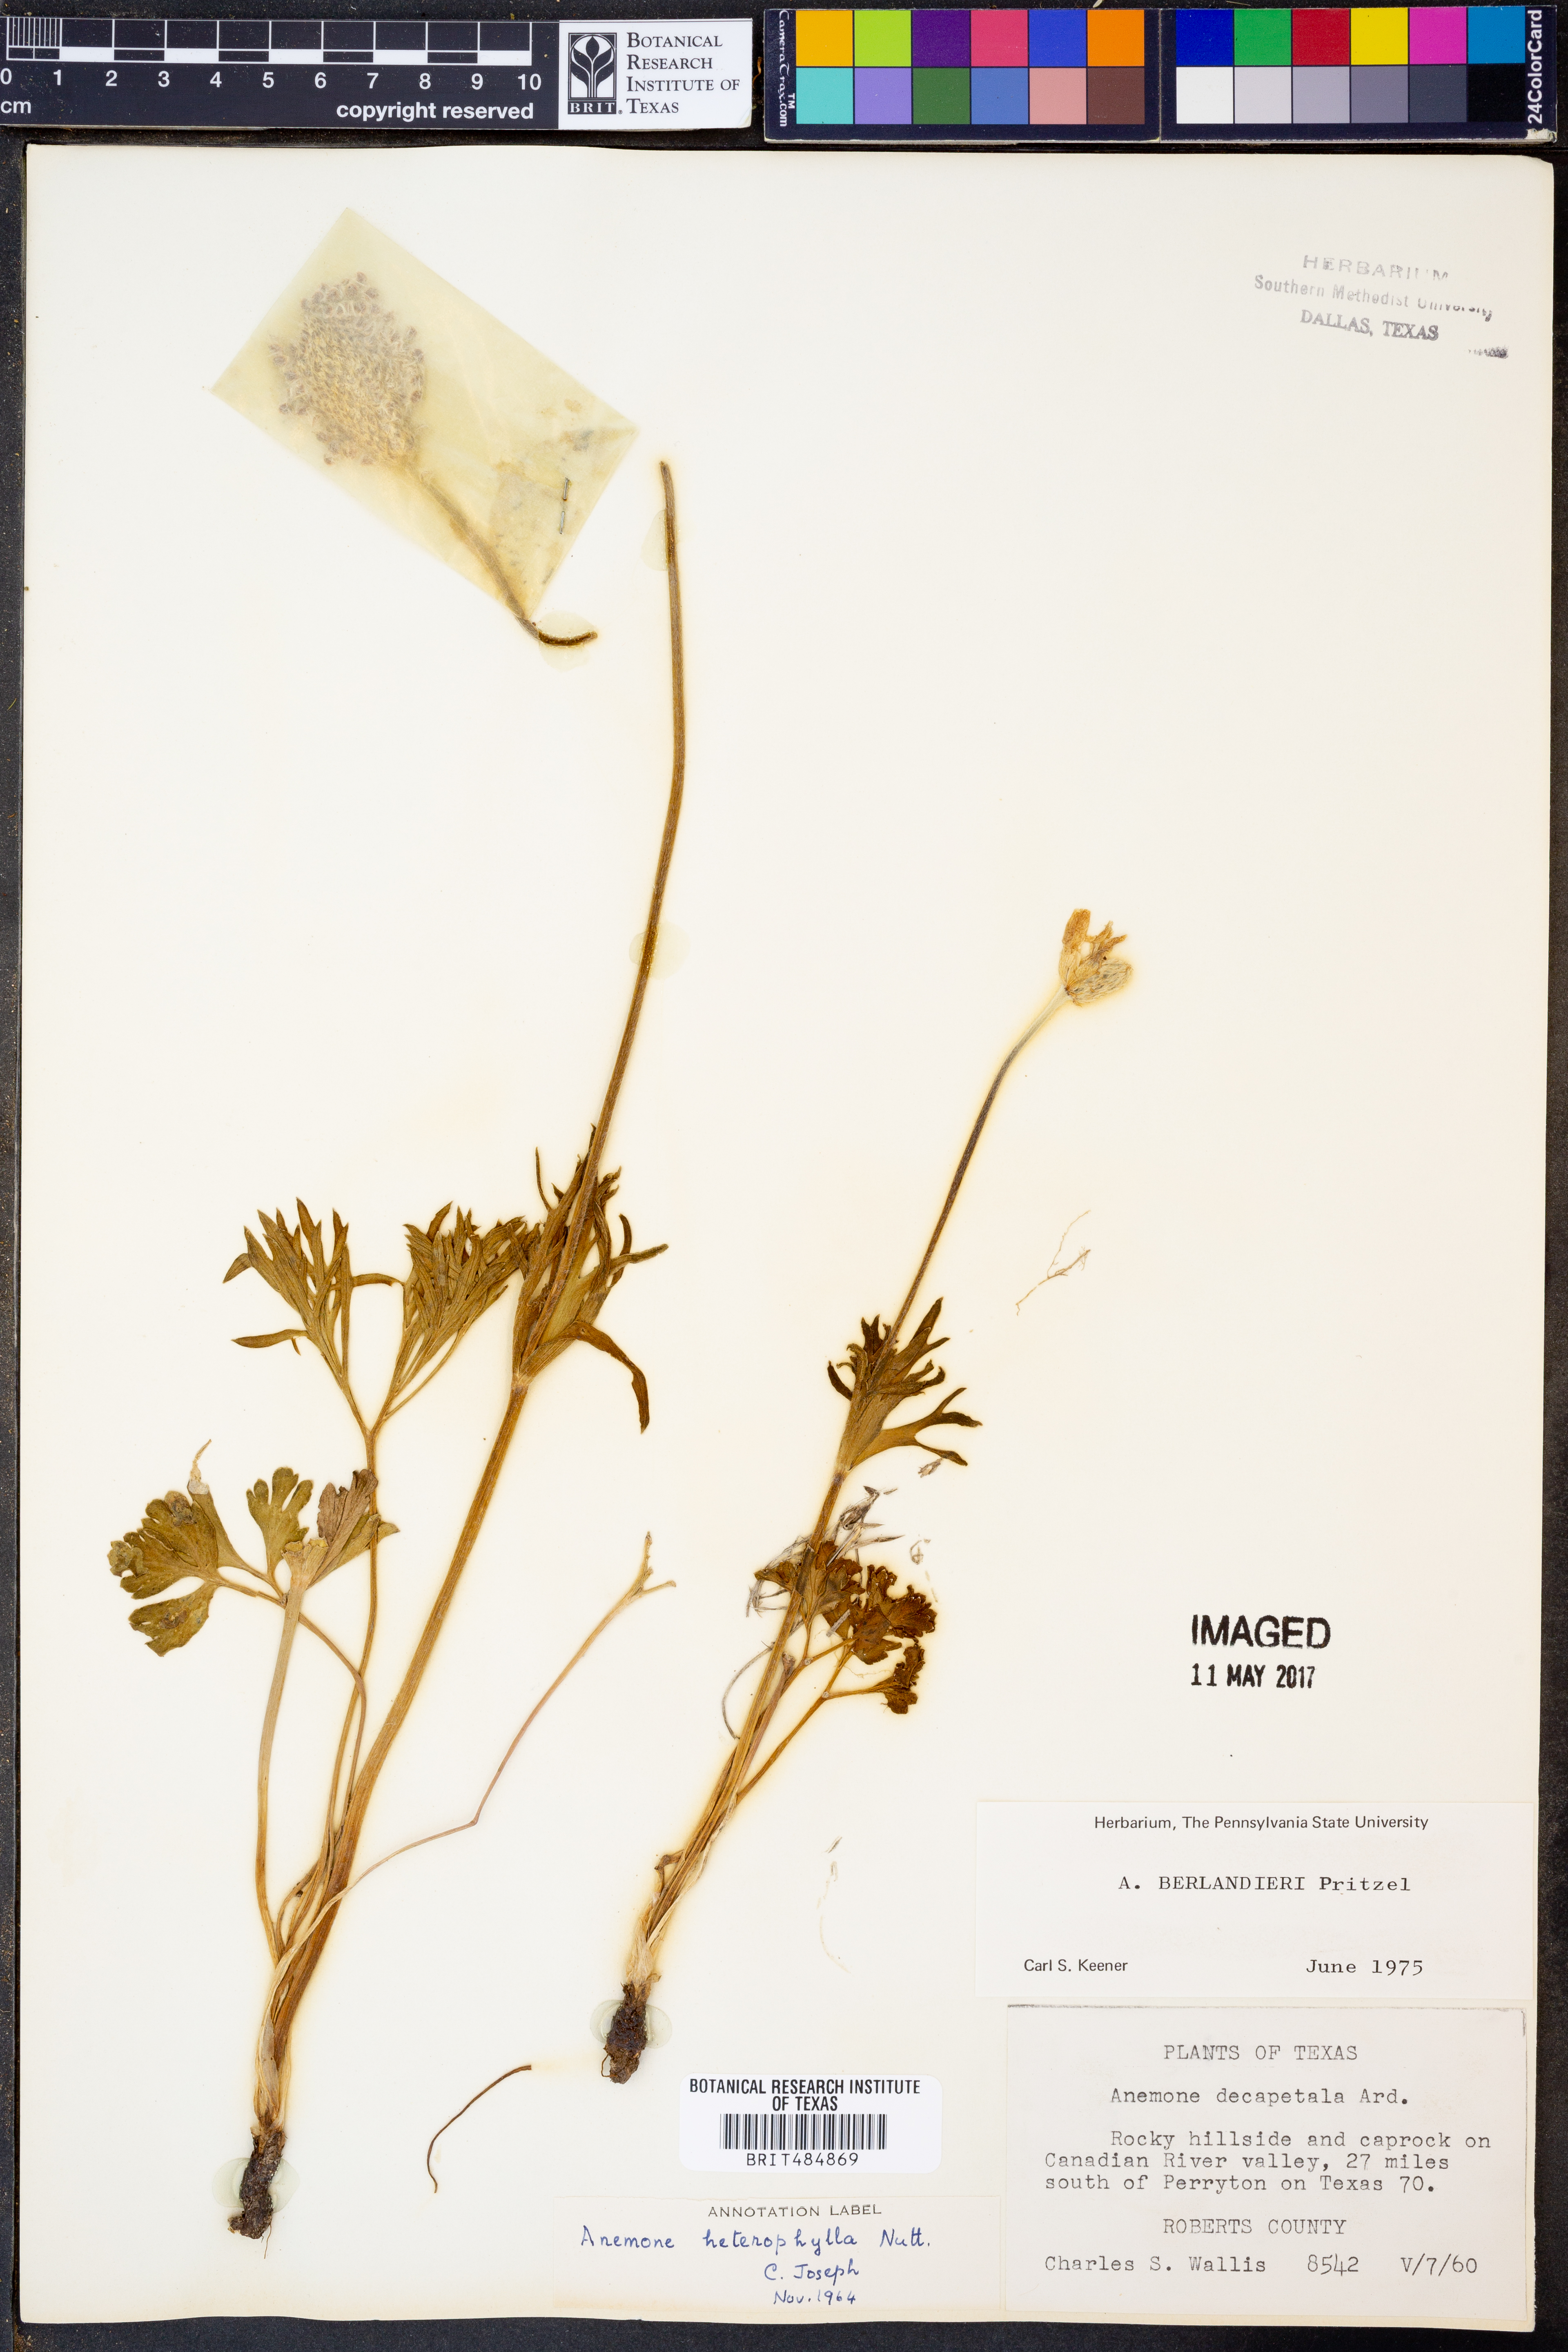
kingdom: Plantae
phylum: Tracheophyta
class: Magnoliopsida
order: Ranunculales
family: Ranunculaceae
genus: Anemone
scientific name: Anemone berlandieri
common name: Ten-petal anemone
